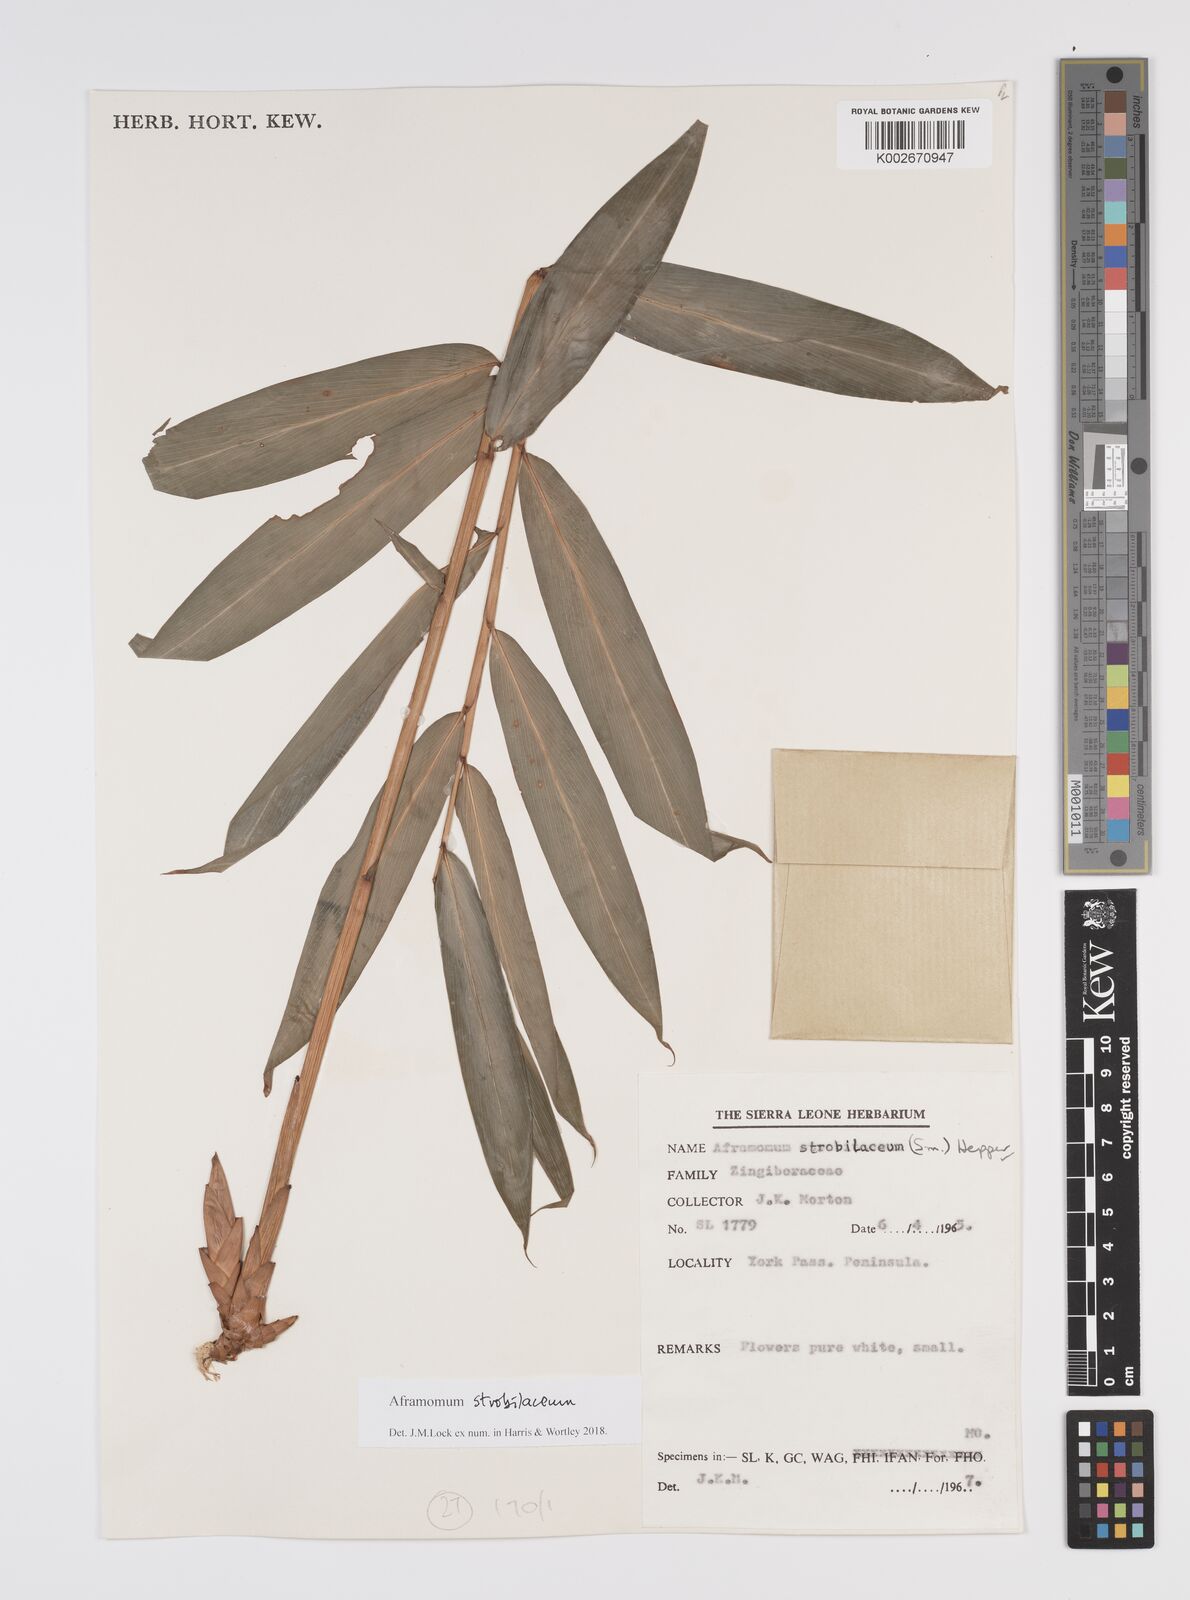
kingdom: Plantae
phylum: Tracheophyta
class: Liliopsida
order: Zingiberales
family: Zingiberaceae
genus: Aframomum
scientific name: Aframomum strobilaceum
